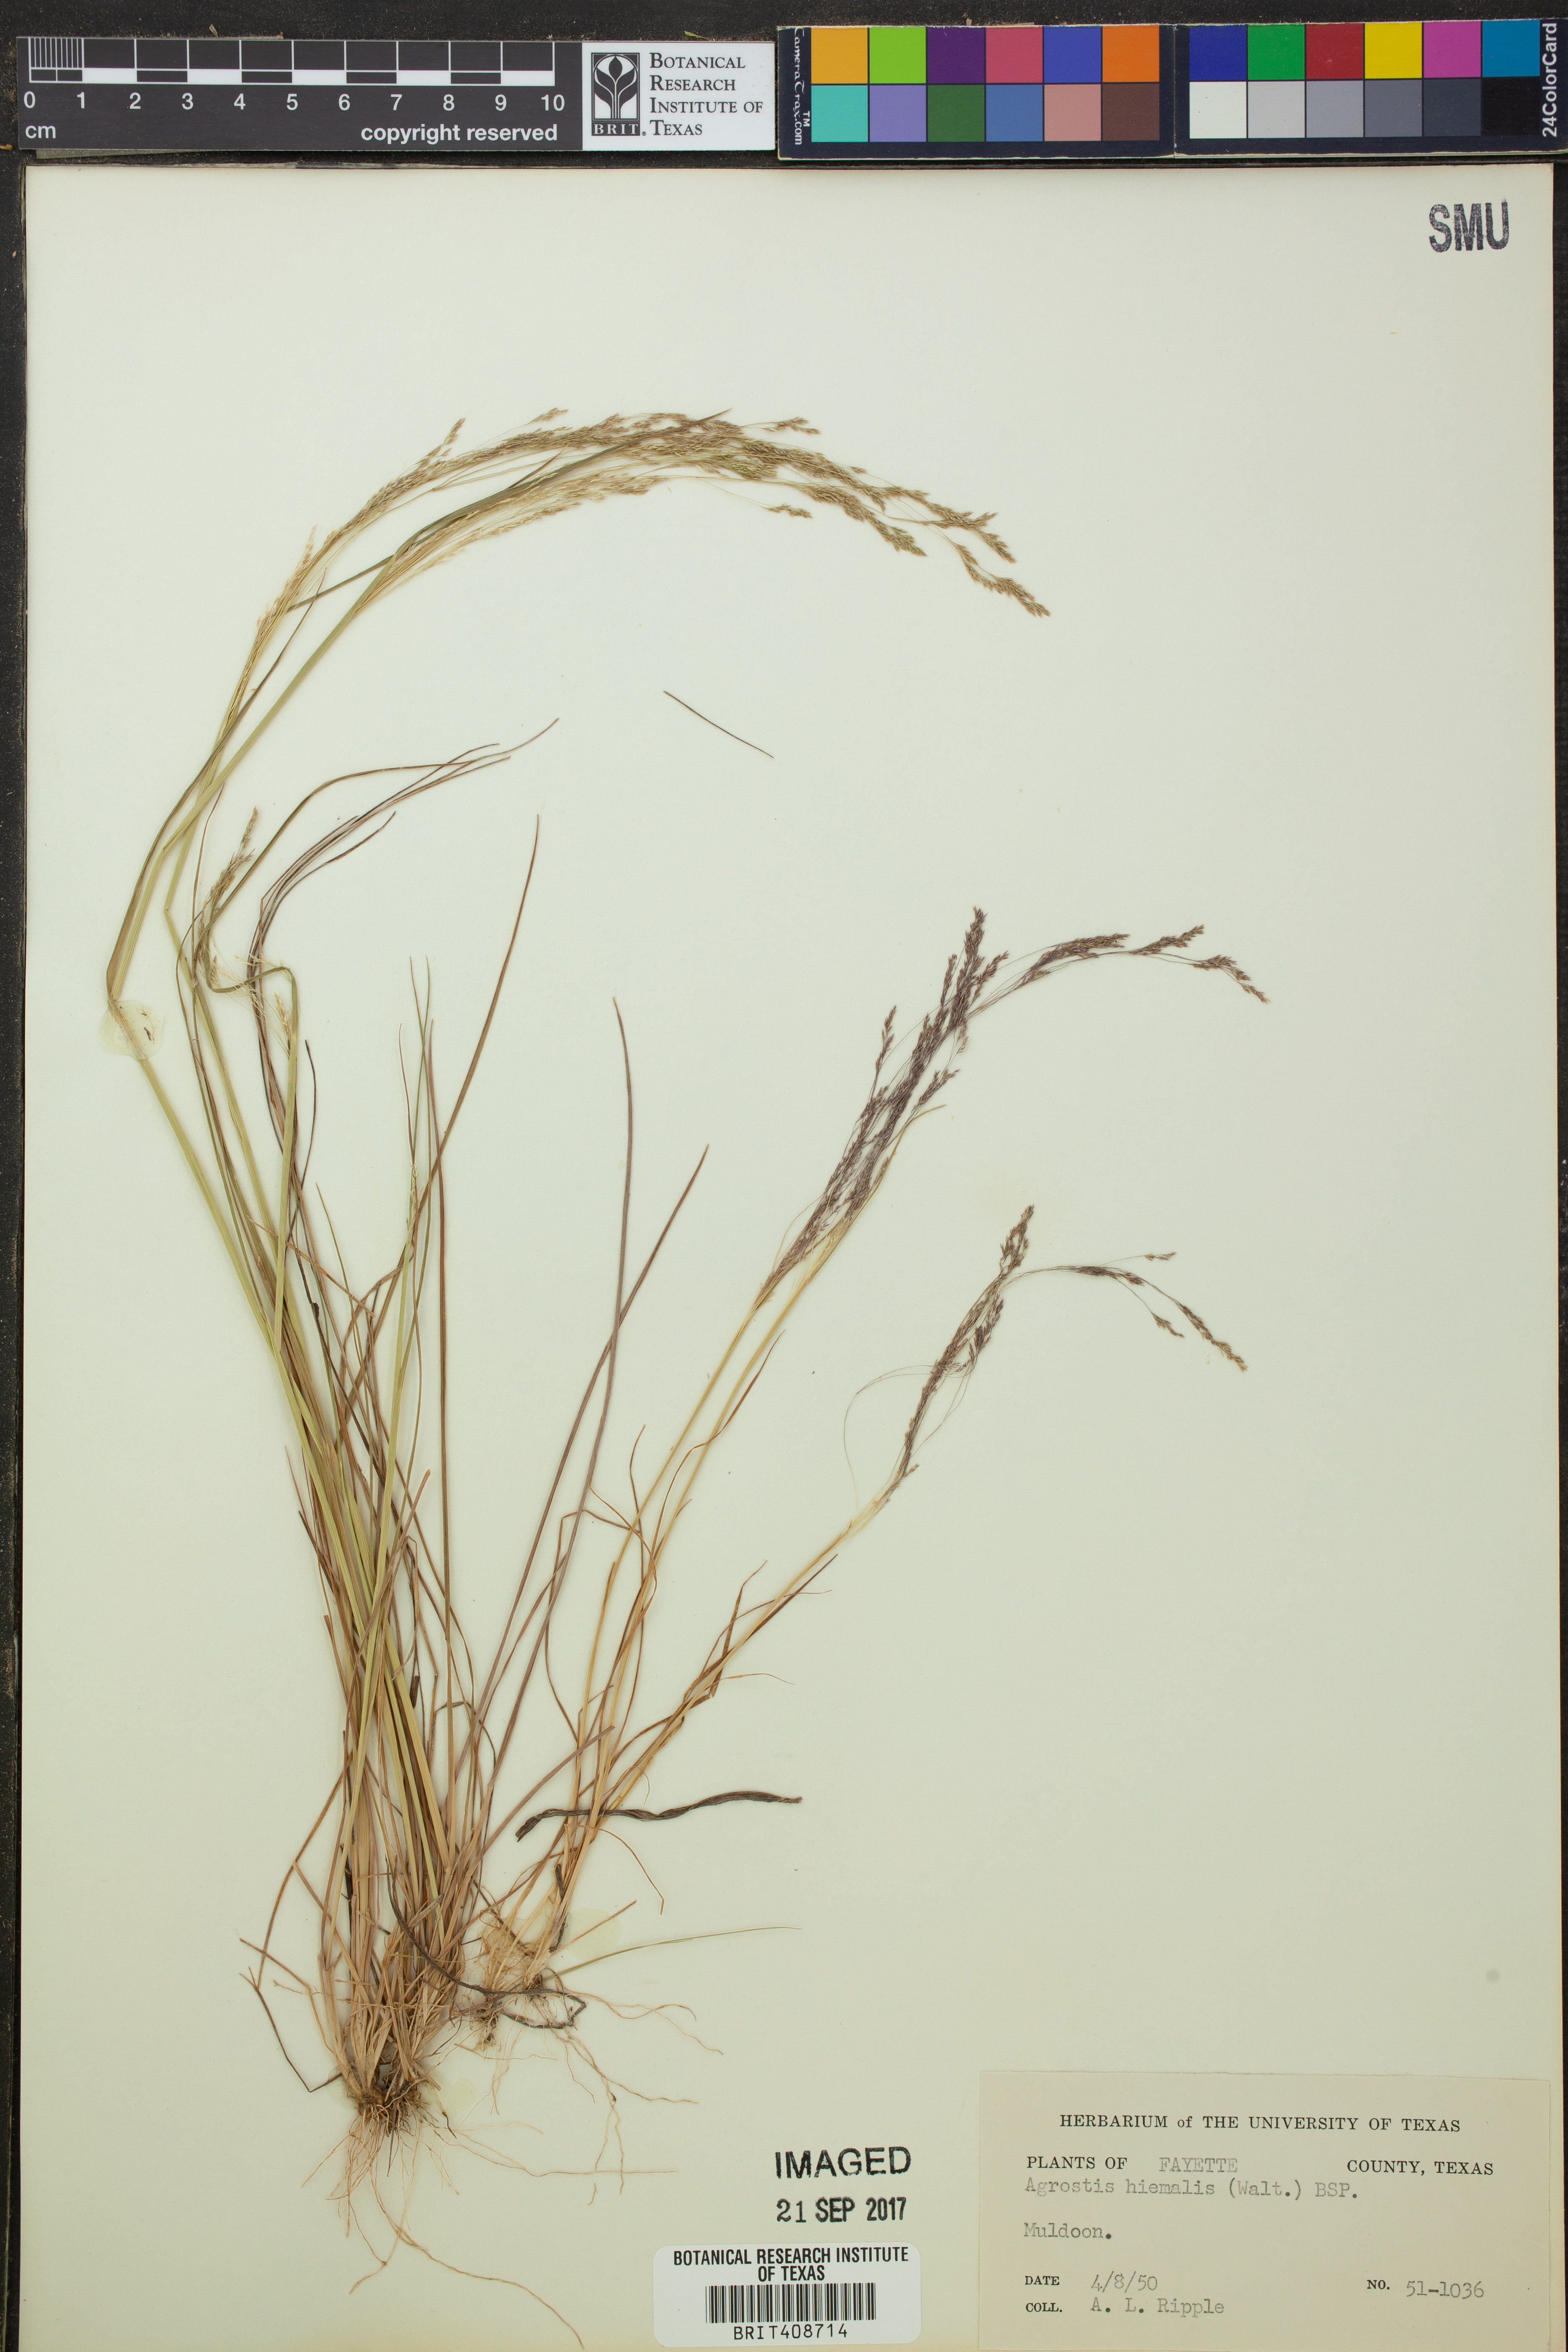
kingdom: Plantae
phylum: Tracheophyta
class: Liliopsida
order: Poales
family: Poaceae
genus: Agrostis
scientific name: Agrostis hyemalis
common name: Small bent
